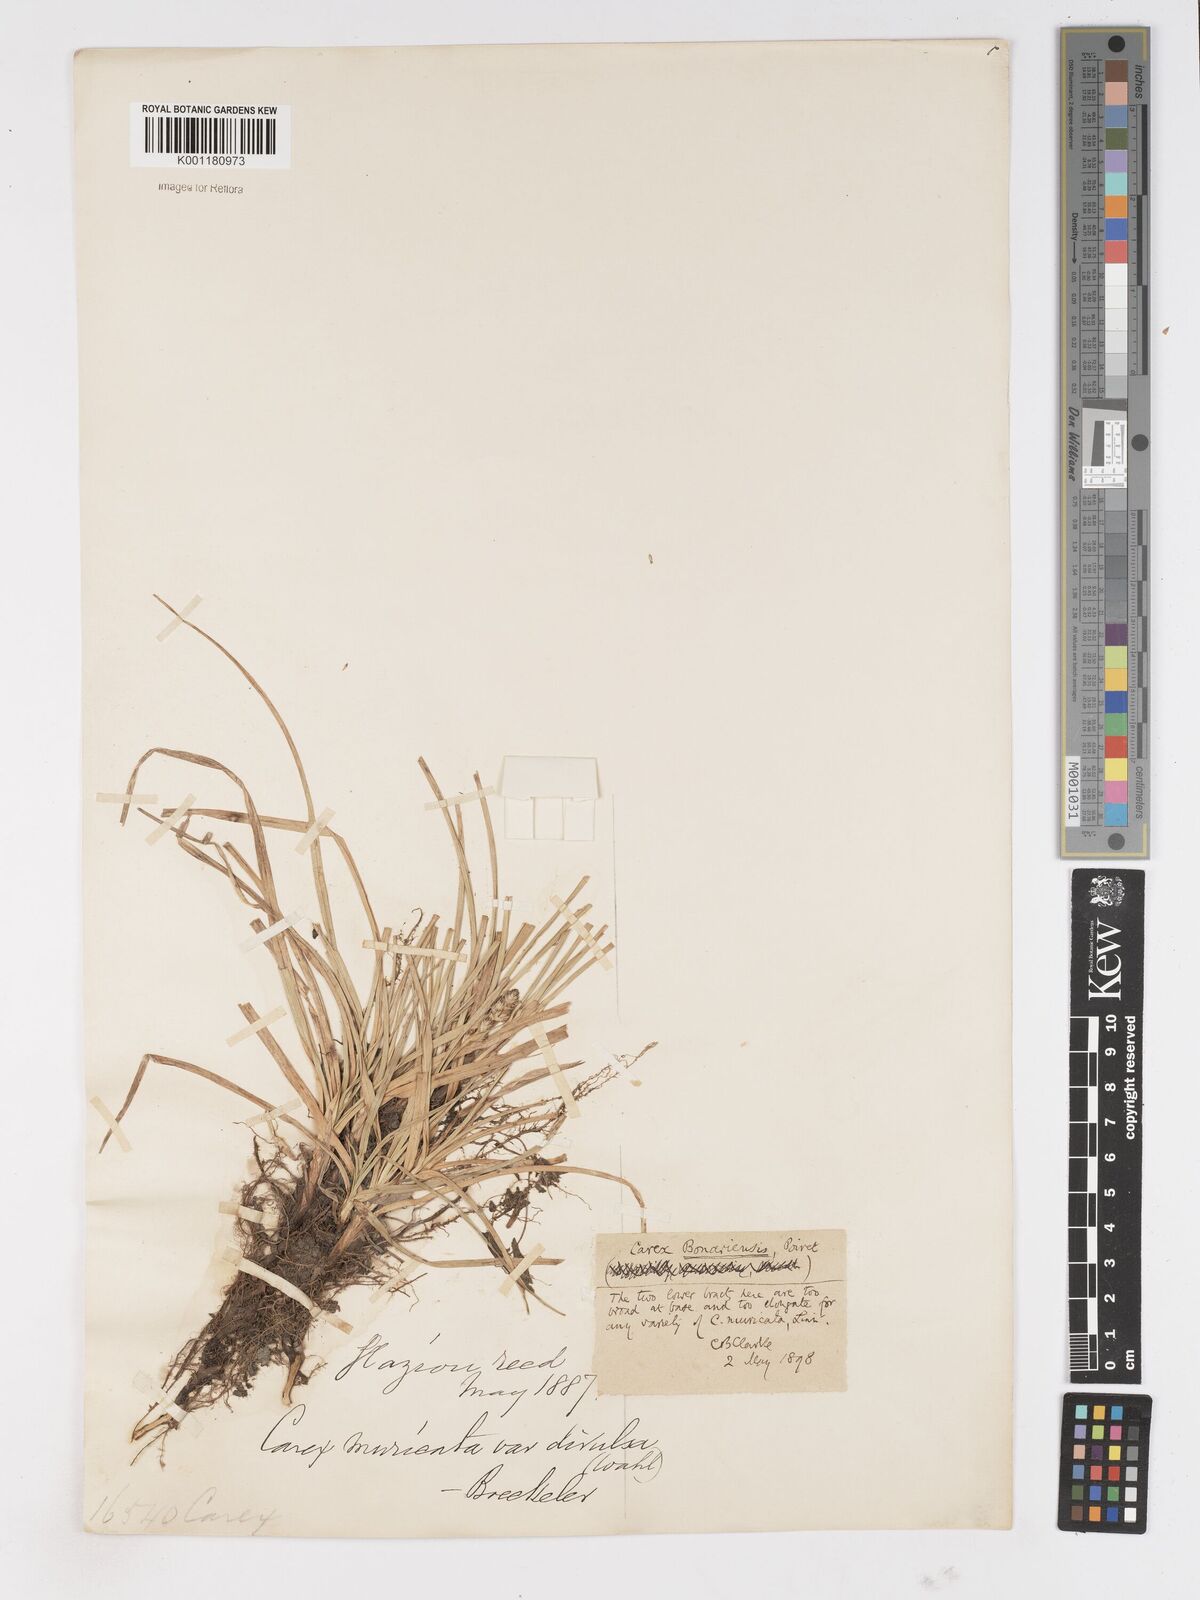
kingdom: Plantae
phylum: Tracheophyta
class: Liliopsida
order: Poales
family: Cyperaceae
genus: Carex
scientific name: Carex bonariensis
